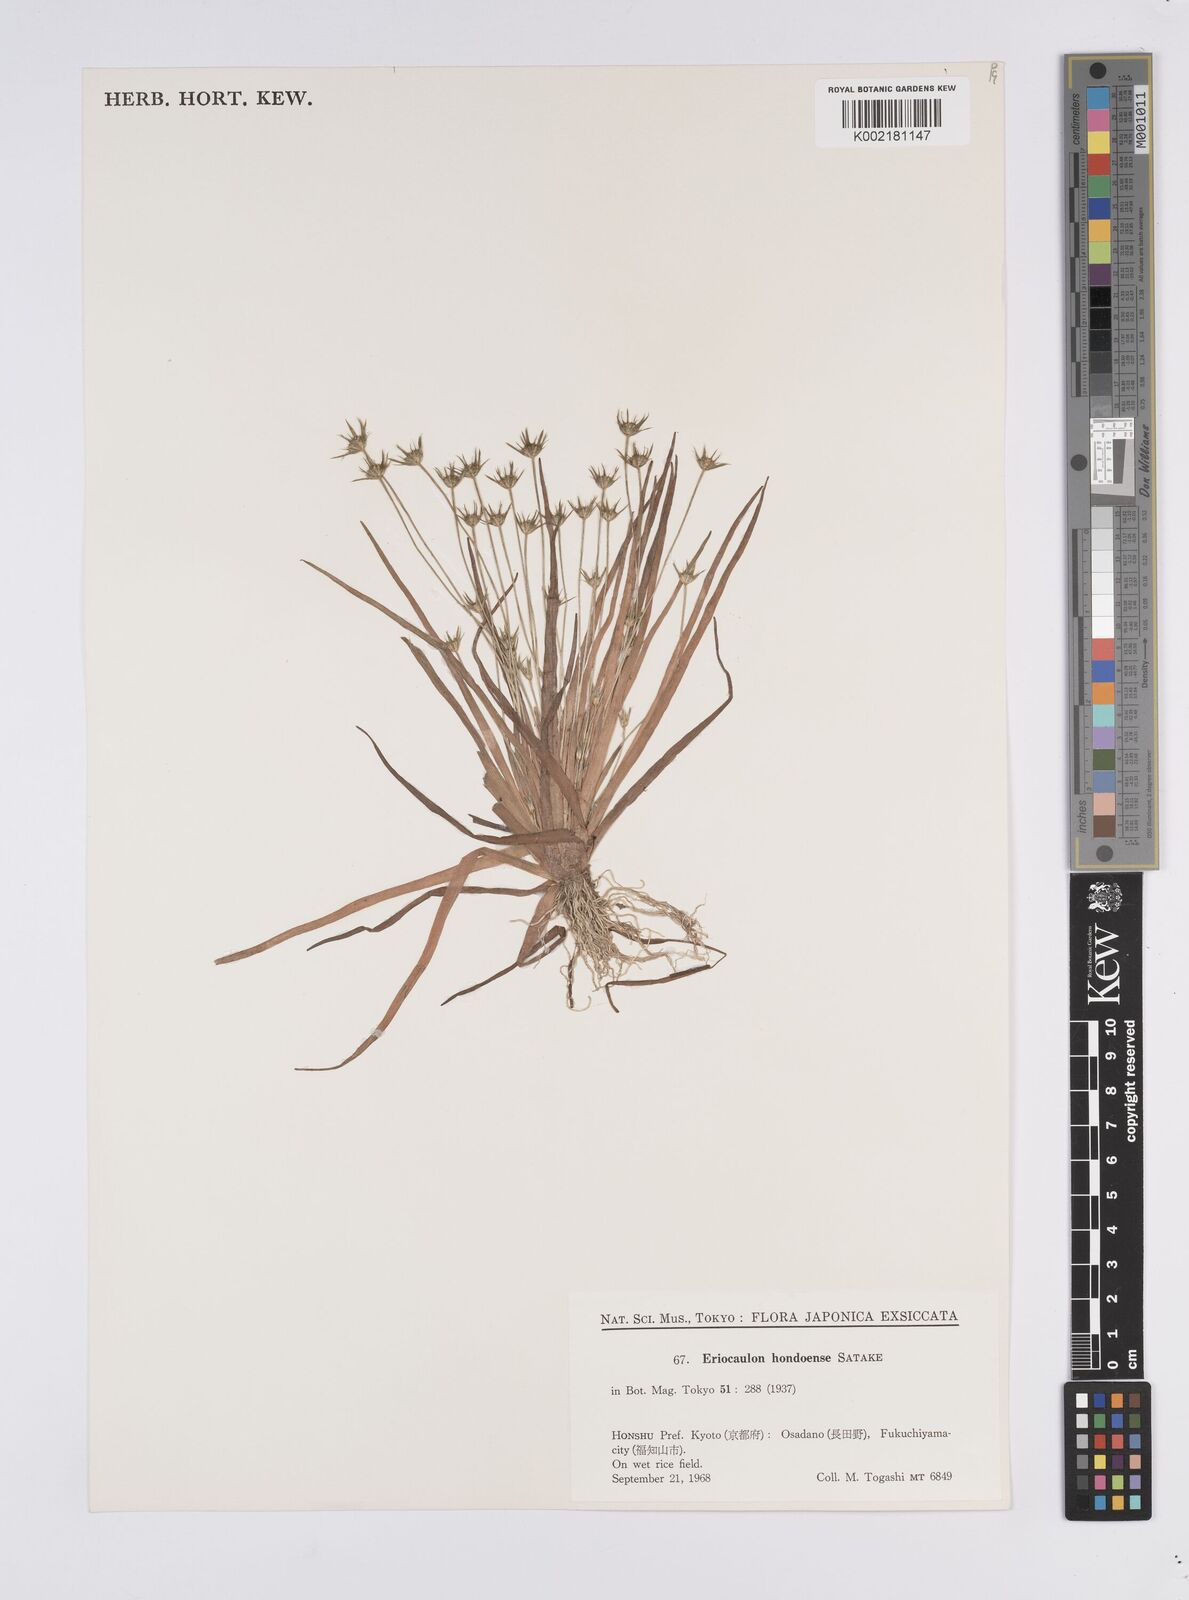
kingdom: Plantae
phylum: Tracheophyta
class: Liliopsida
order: Poales
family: Eriocaulaceae
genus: Eriocaulon
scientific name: Eriocaulon taquetii
